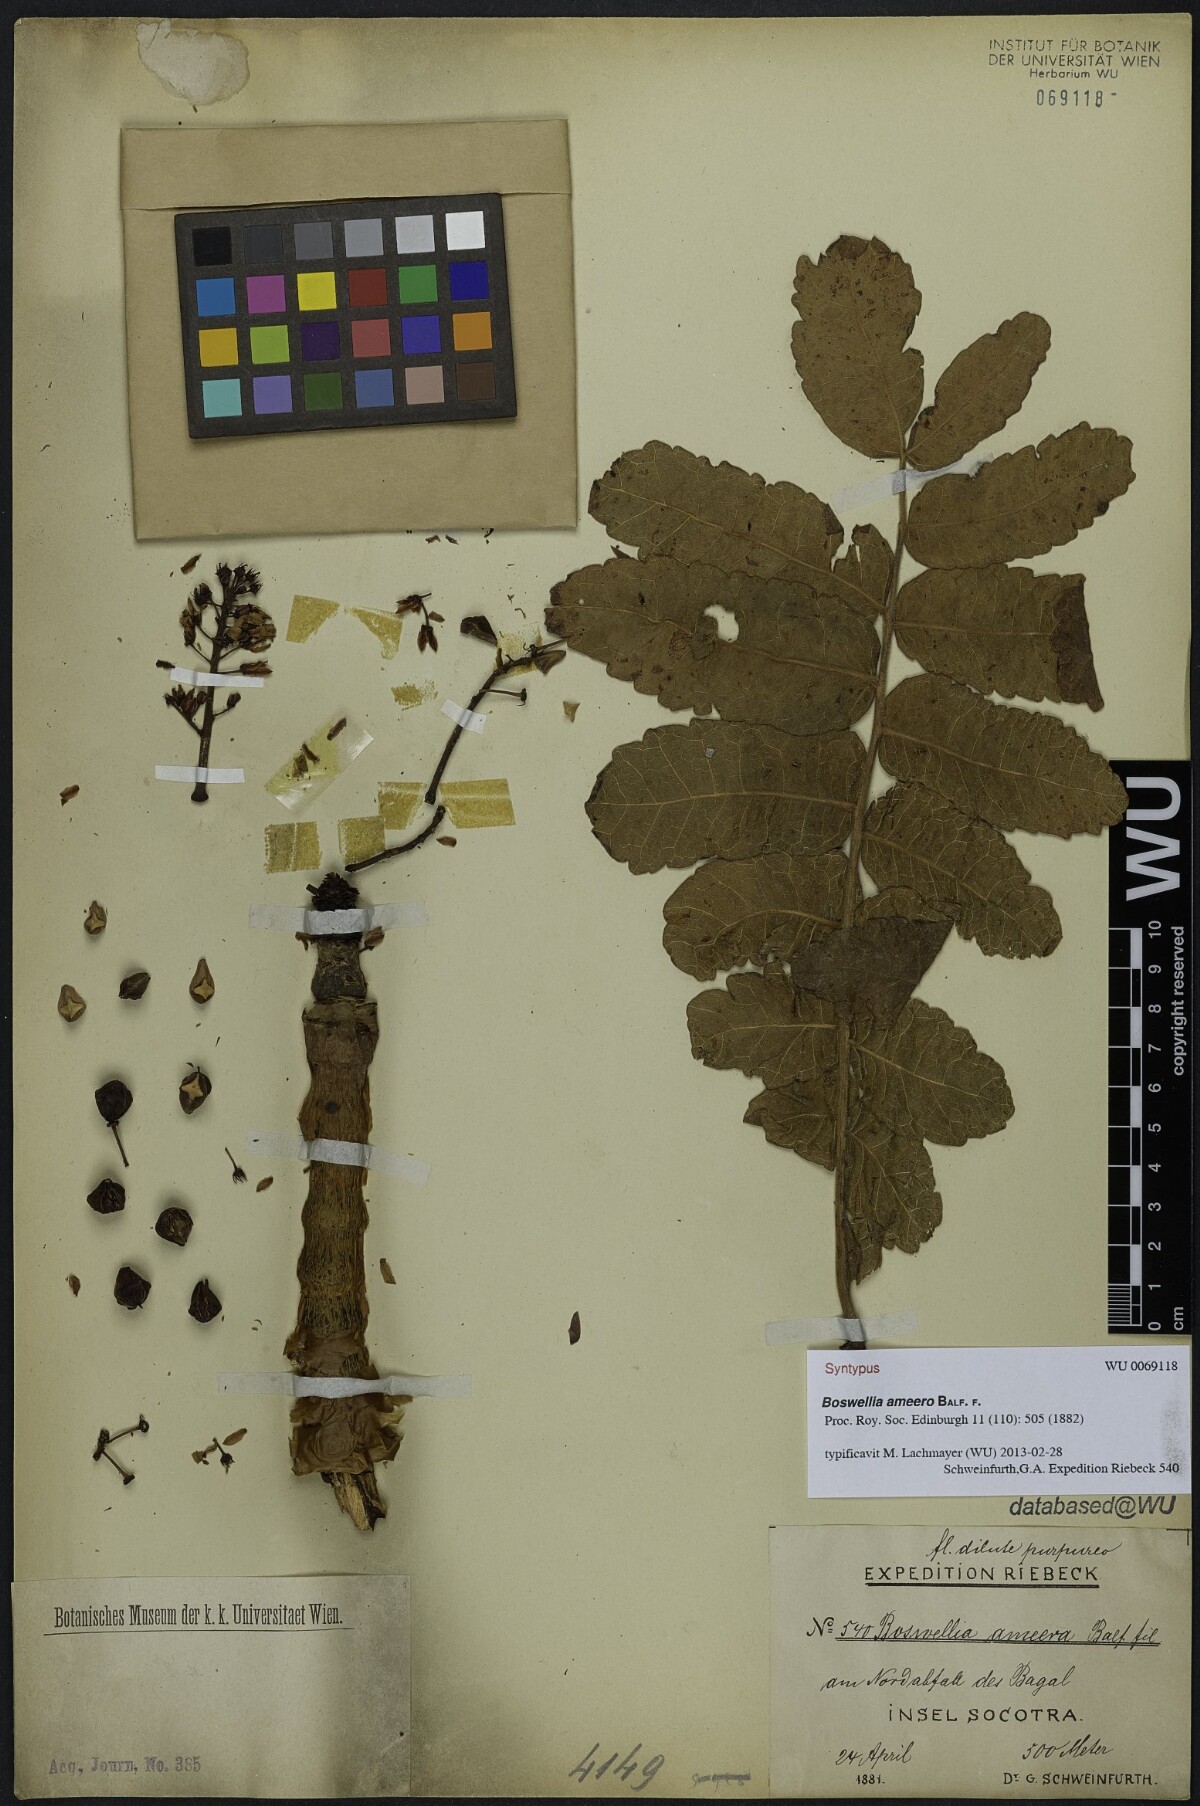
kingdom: Plantae
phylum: Tracheophyta
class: Magnoliopsida
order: Sapindales
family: Burseraceae
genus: Boswellia
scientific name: Boswellia ameero
